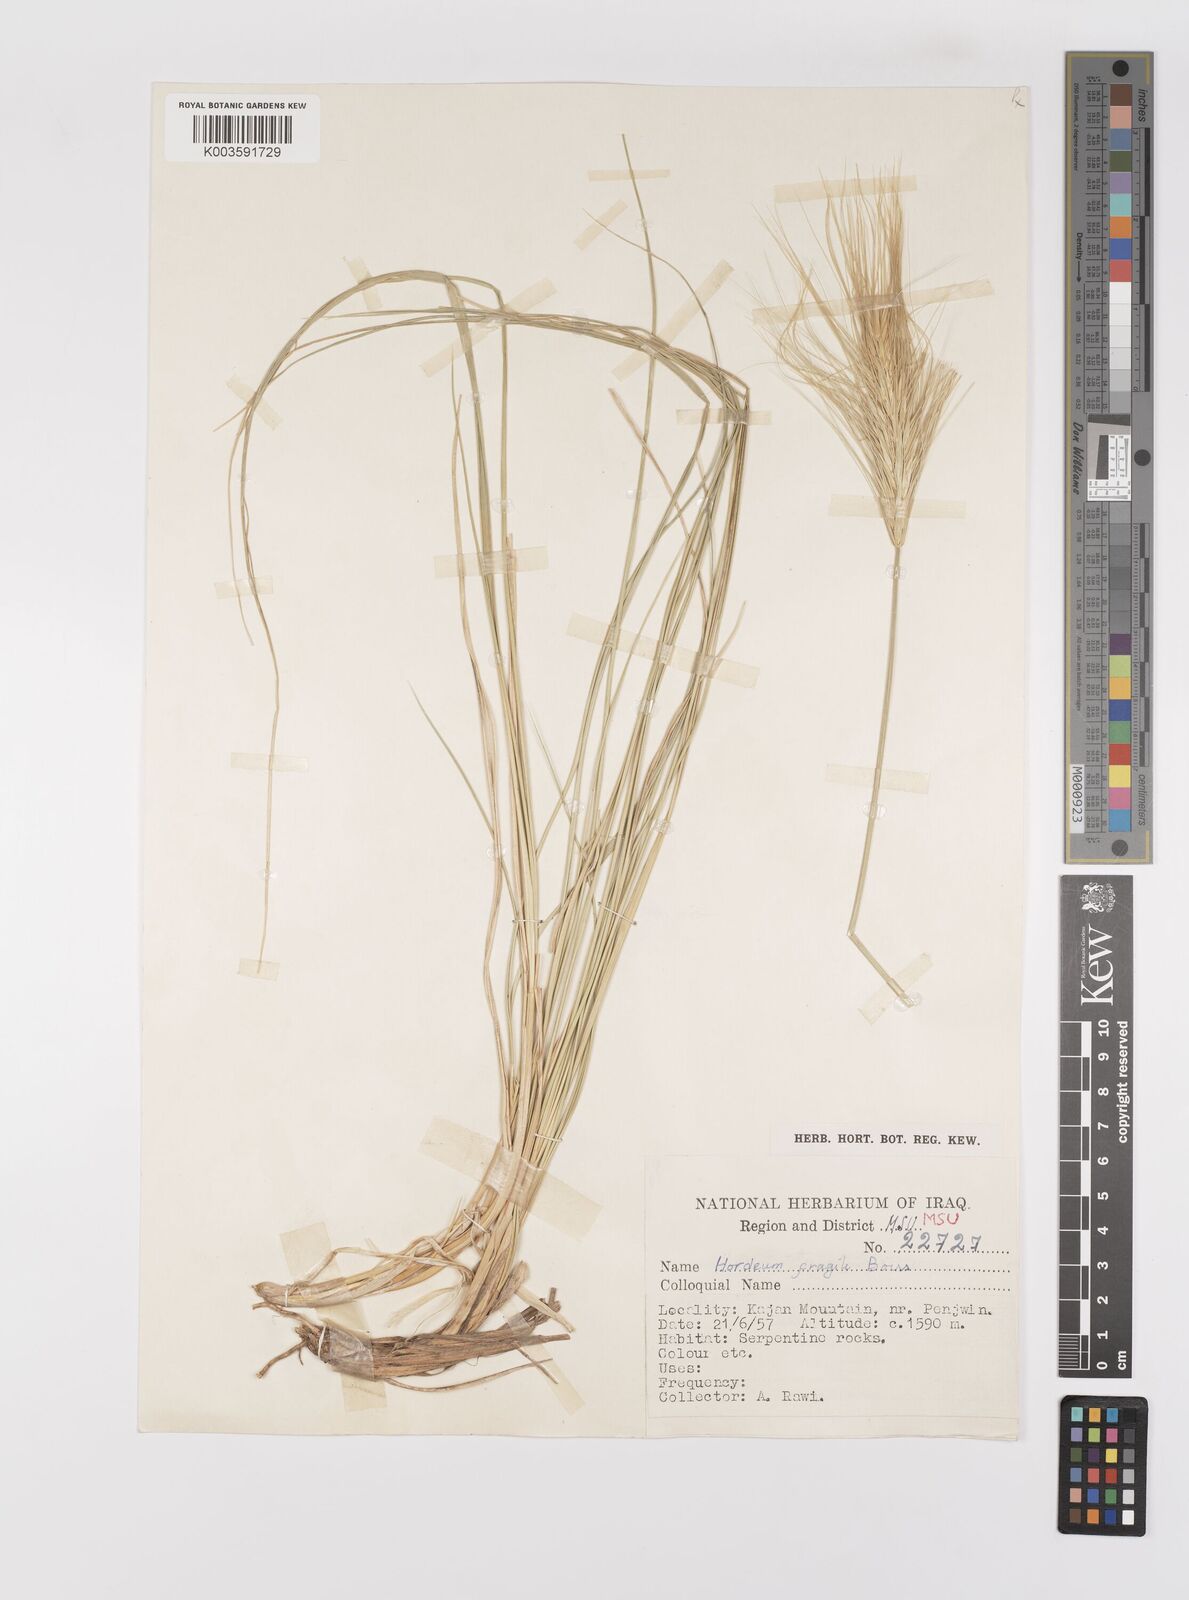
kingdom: Plantae
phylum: Tracheophyta
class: Liliopsida
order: Poales
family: Poaceae
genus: Psathyrostachys
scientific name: Psathyrostachys fragilis
